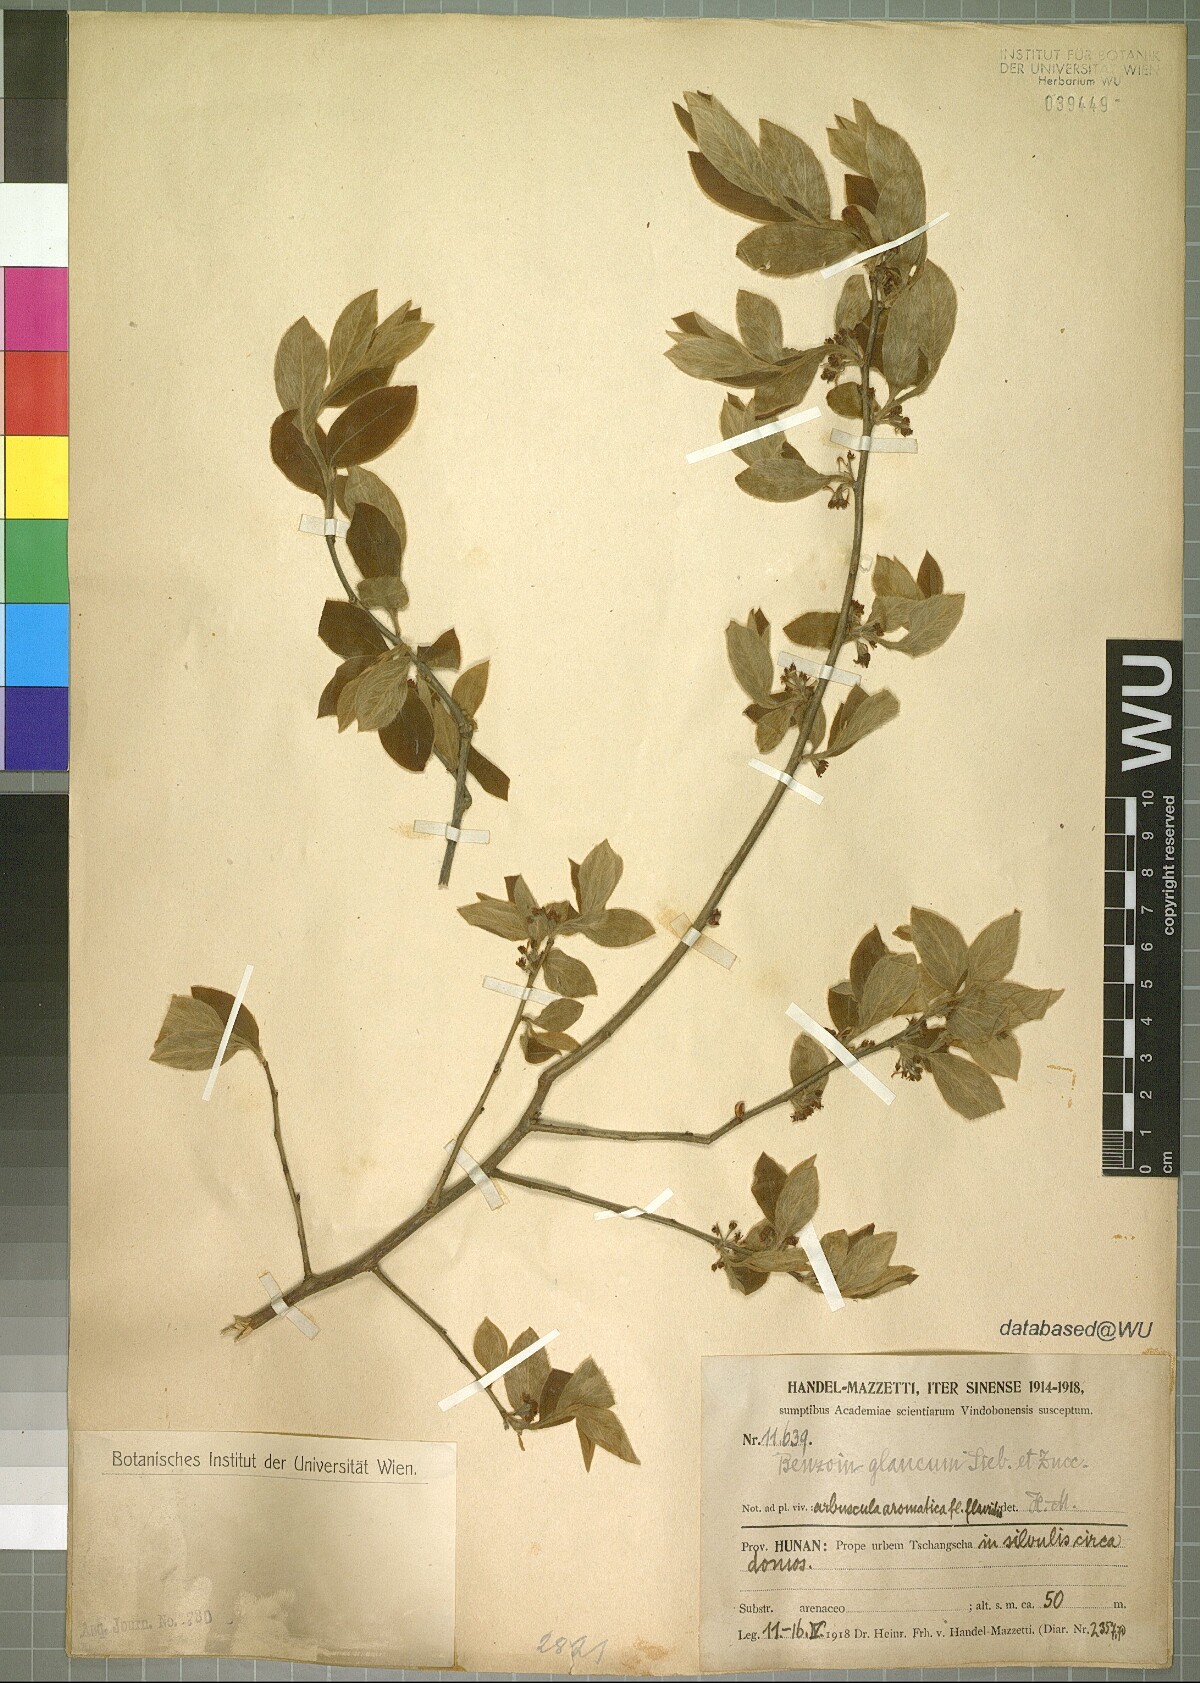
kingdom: Plantae
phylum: Tracheophyta
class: Magnoliopsida
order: Laurales
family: Lauraceae
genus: Lindera
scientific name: Lindera glauca
